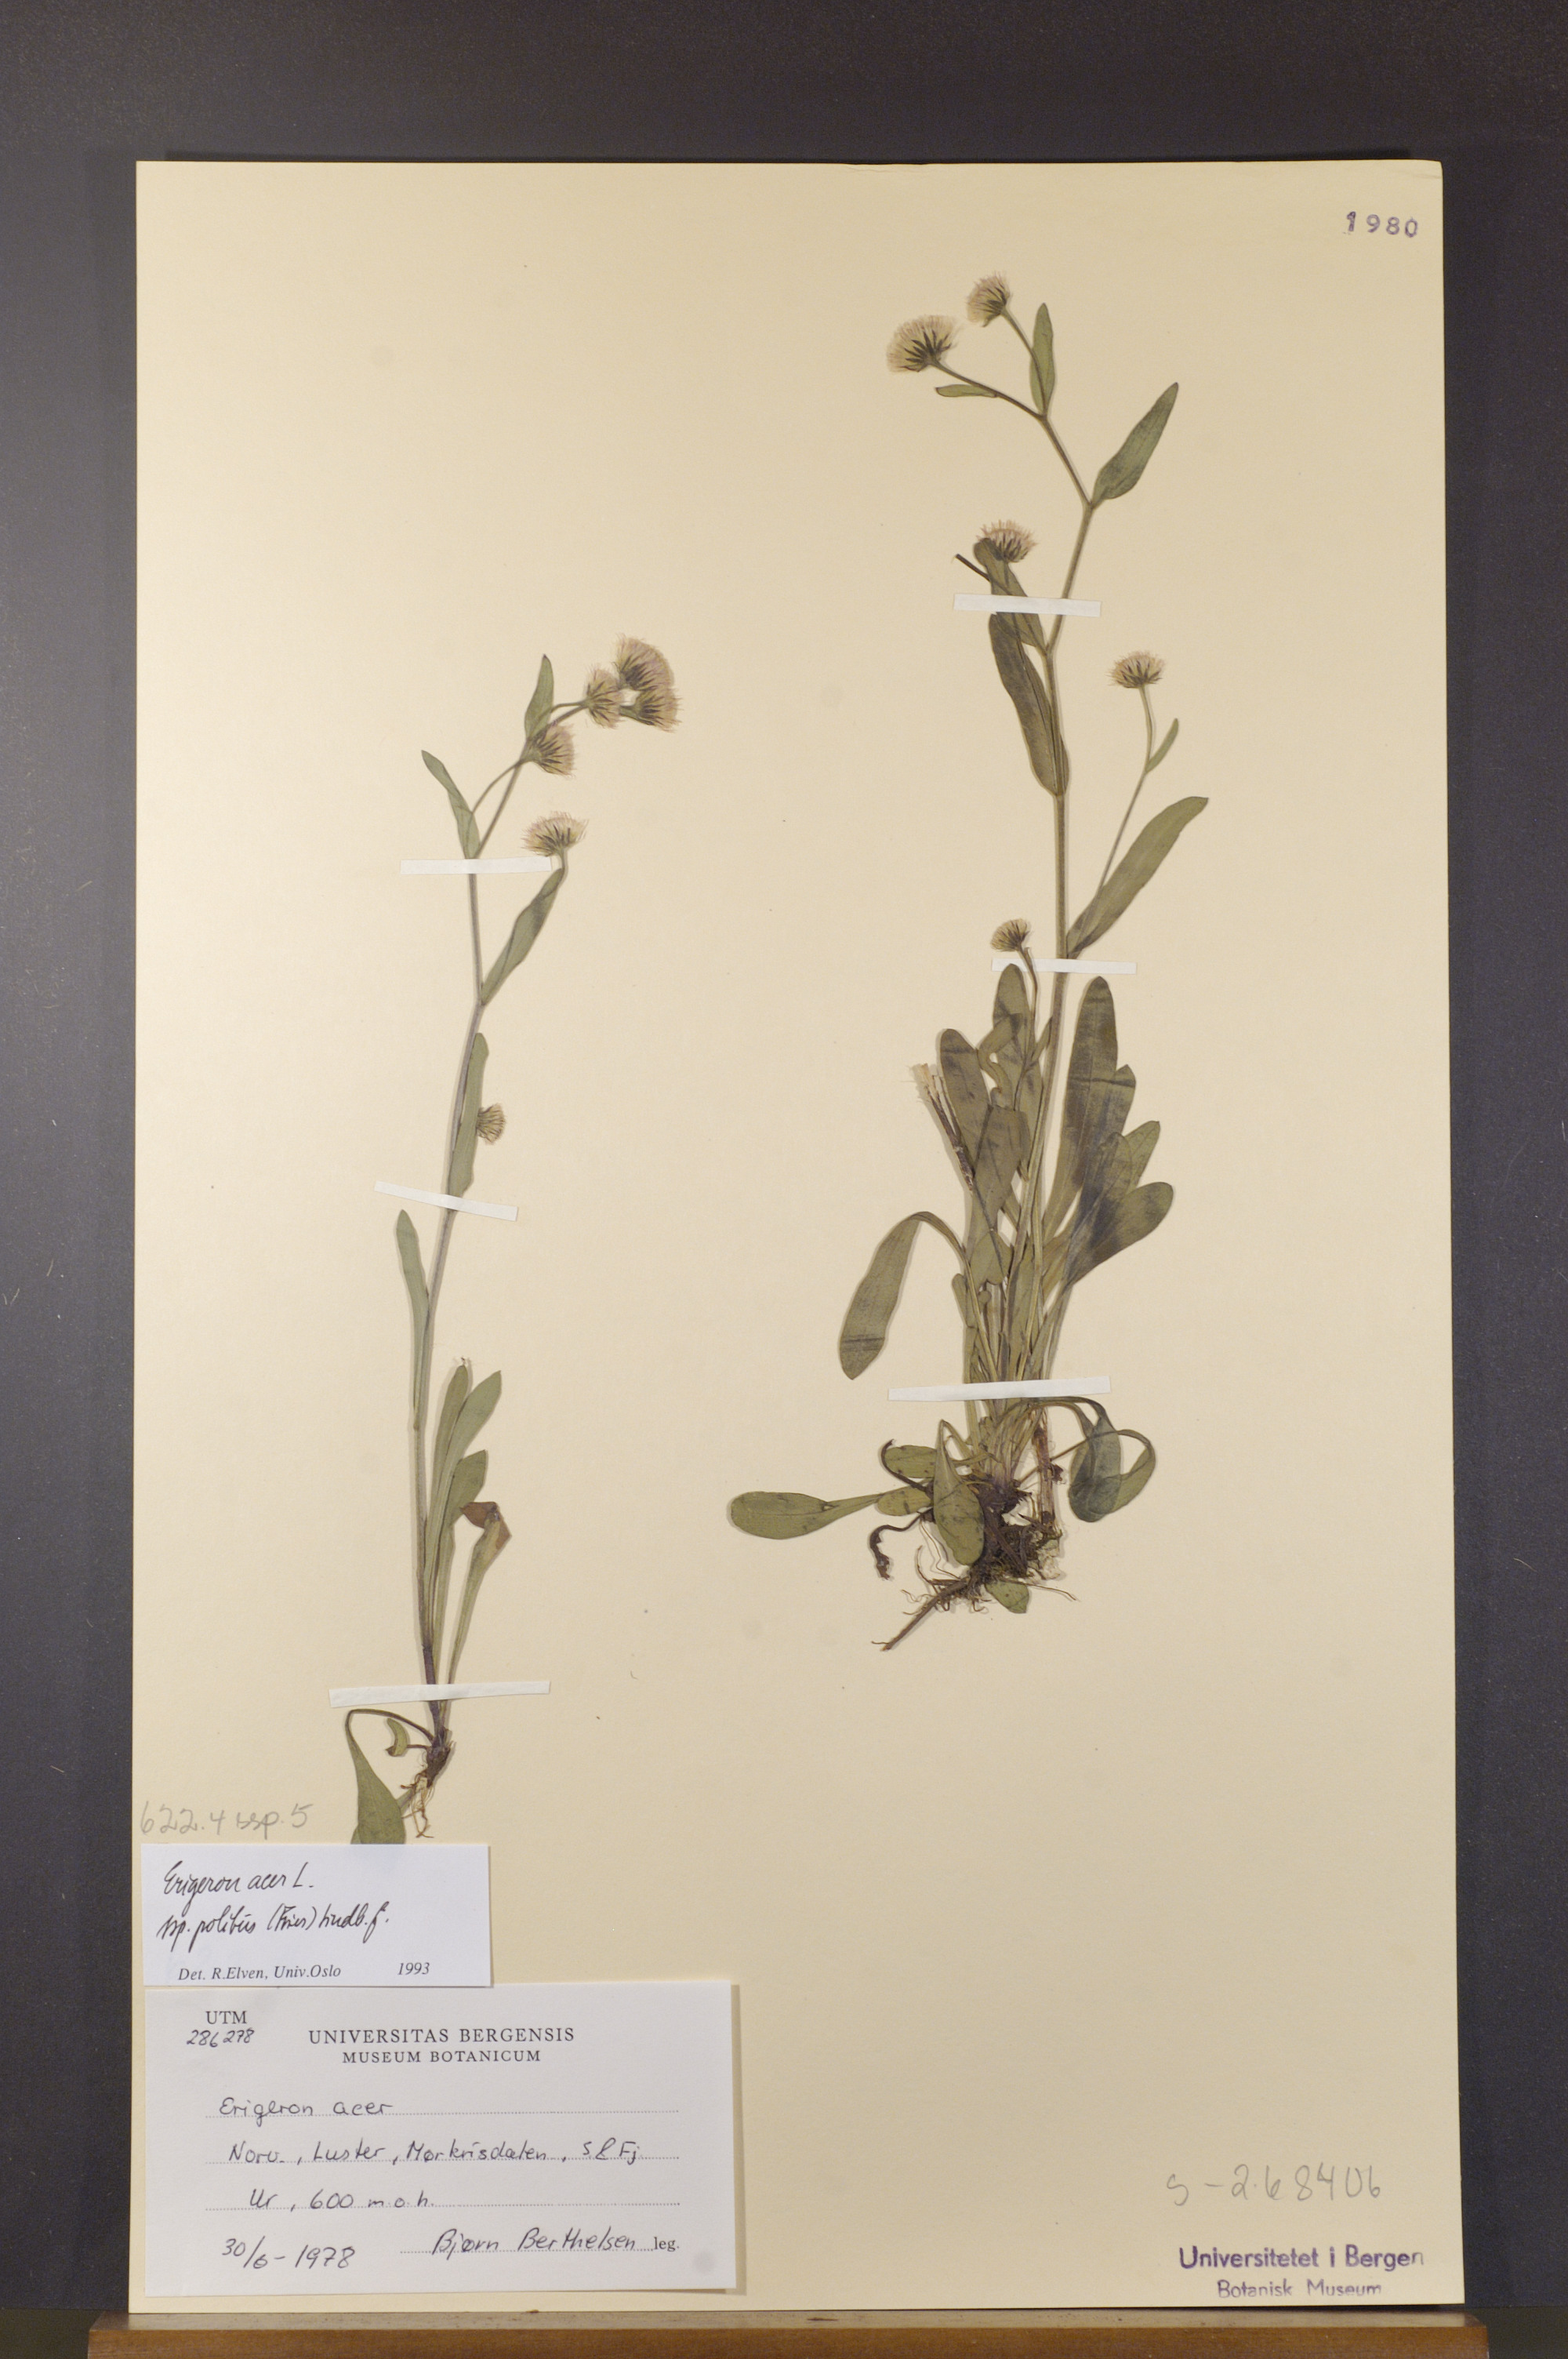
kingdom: Plantae
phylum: Tracheophyta
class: Magnoliopsida
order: Asterales
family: Asteraceae
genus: Erigeron
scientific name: Erigeron politus
